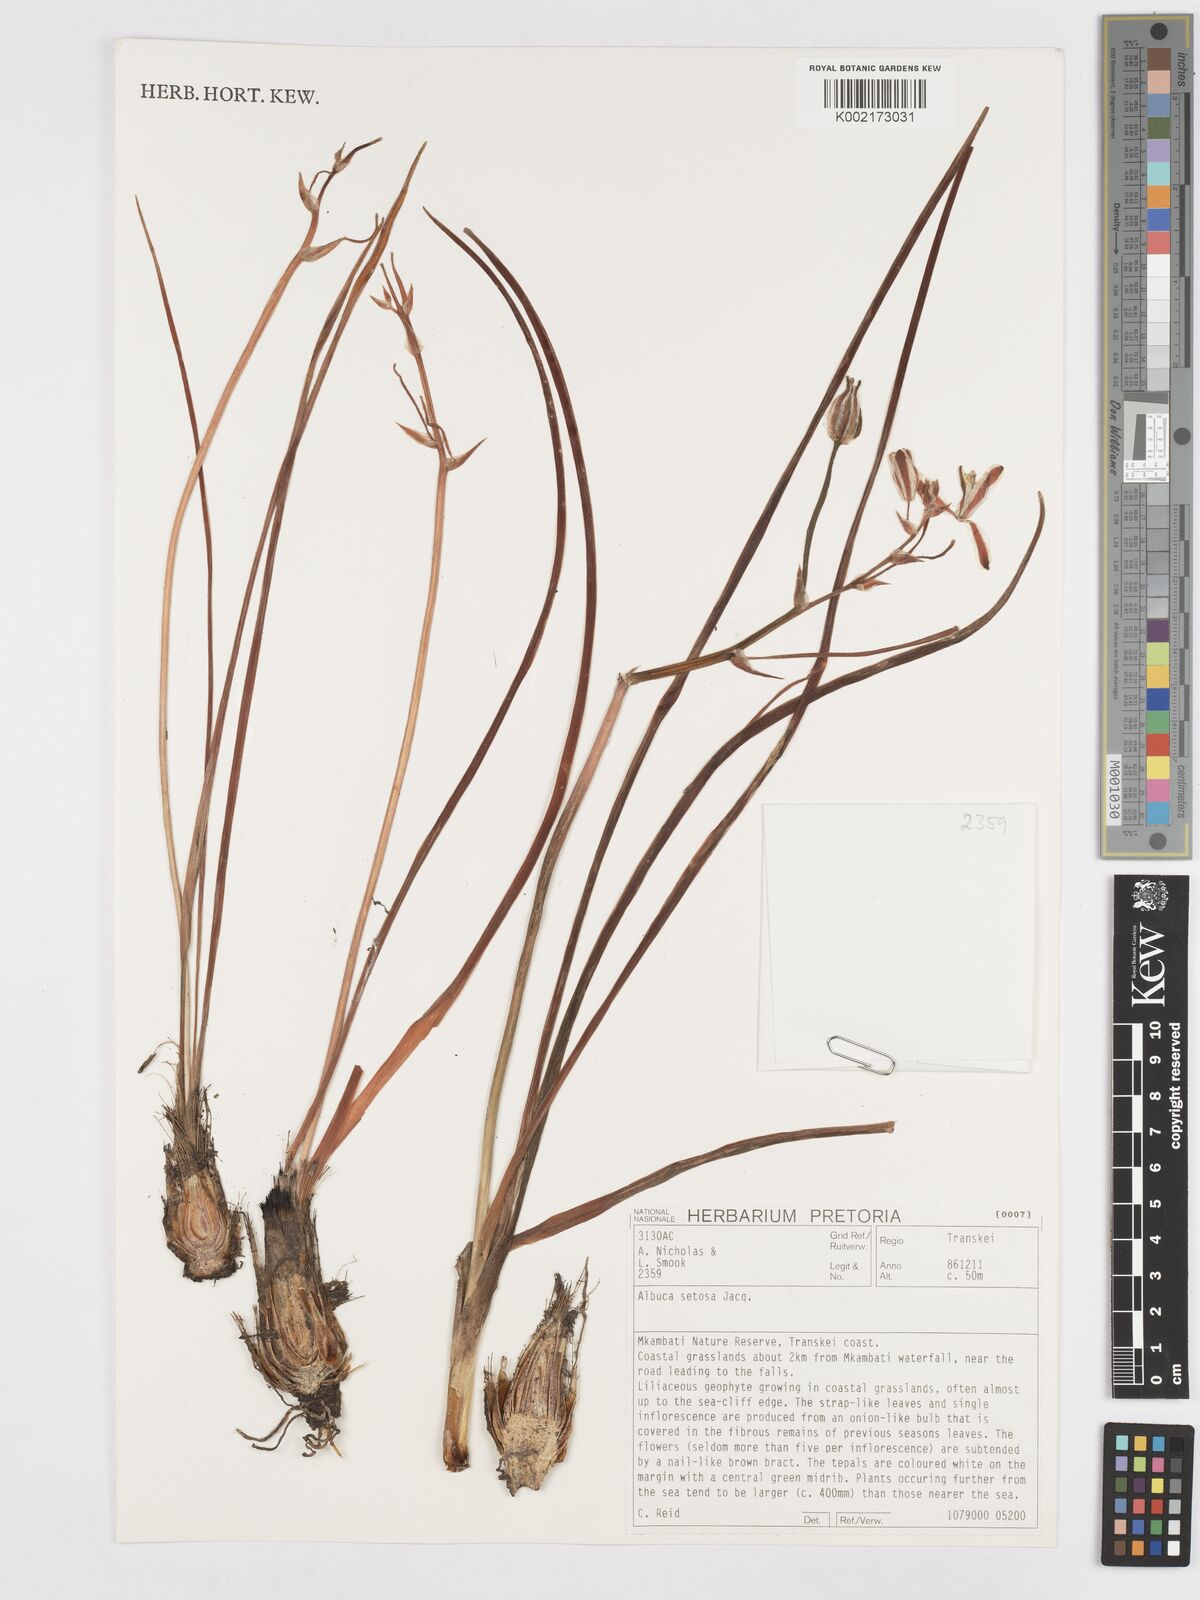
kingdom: Plantae
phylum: Tracheophyta
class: Liliopsida
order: Asparagales
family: Asparagaceae
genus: Albuca
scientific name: Albuca setosa
